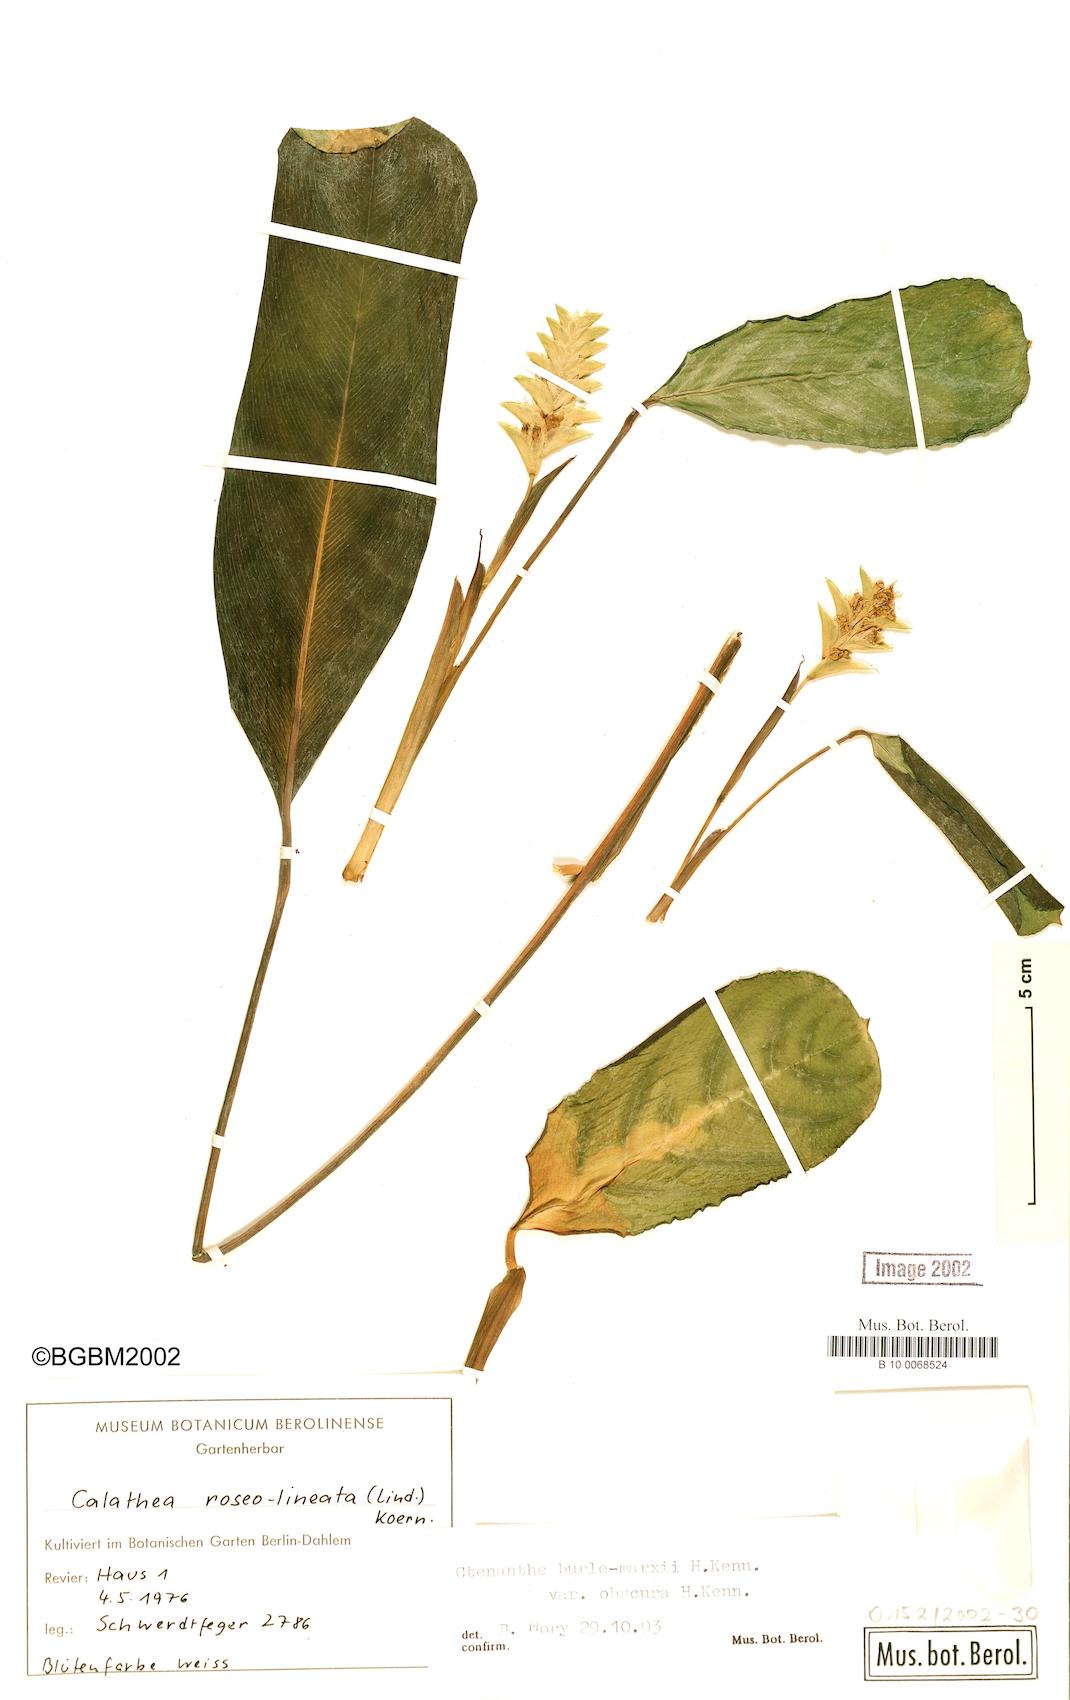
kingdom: Plantae
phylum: Tracheophyta
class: Liliopsida
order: Zingiberales
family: Marantaceae
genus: Ctenanthe
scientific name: Ctenanthe burle-marxii
